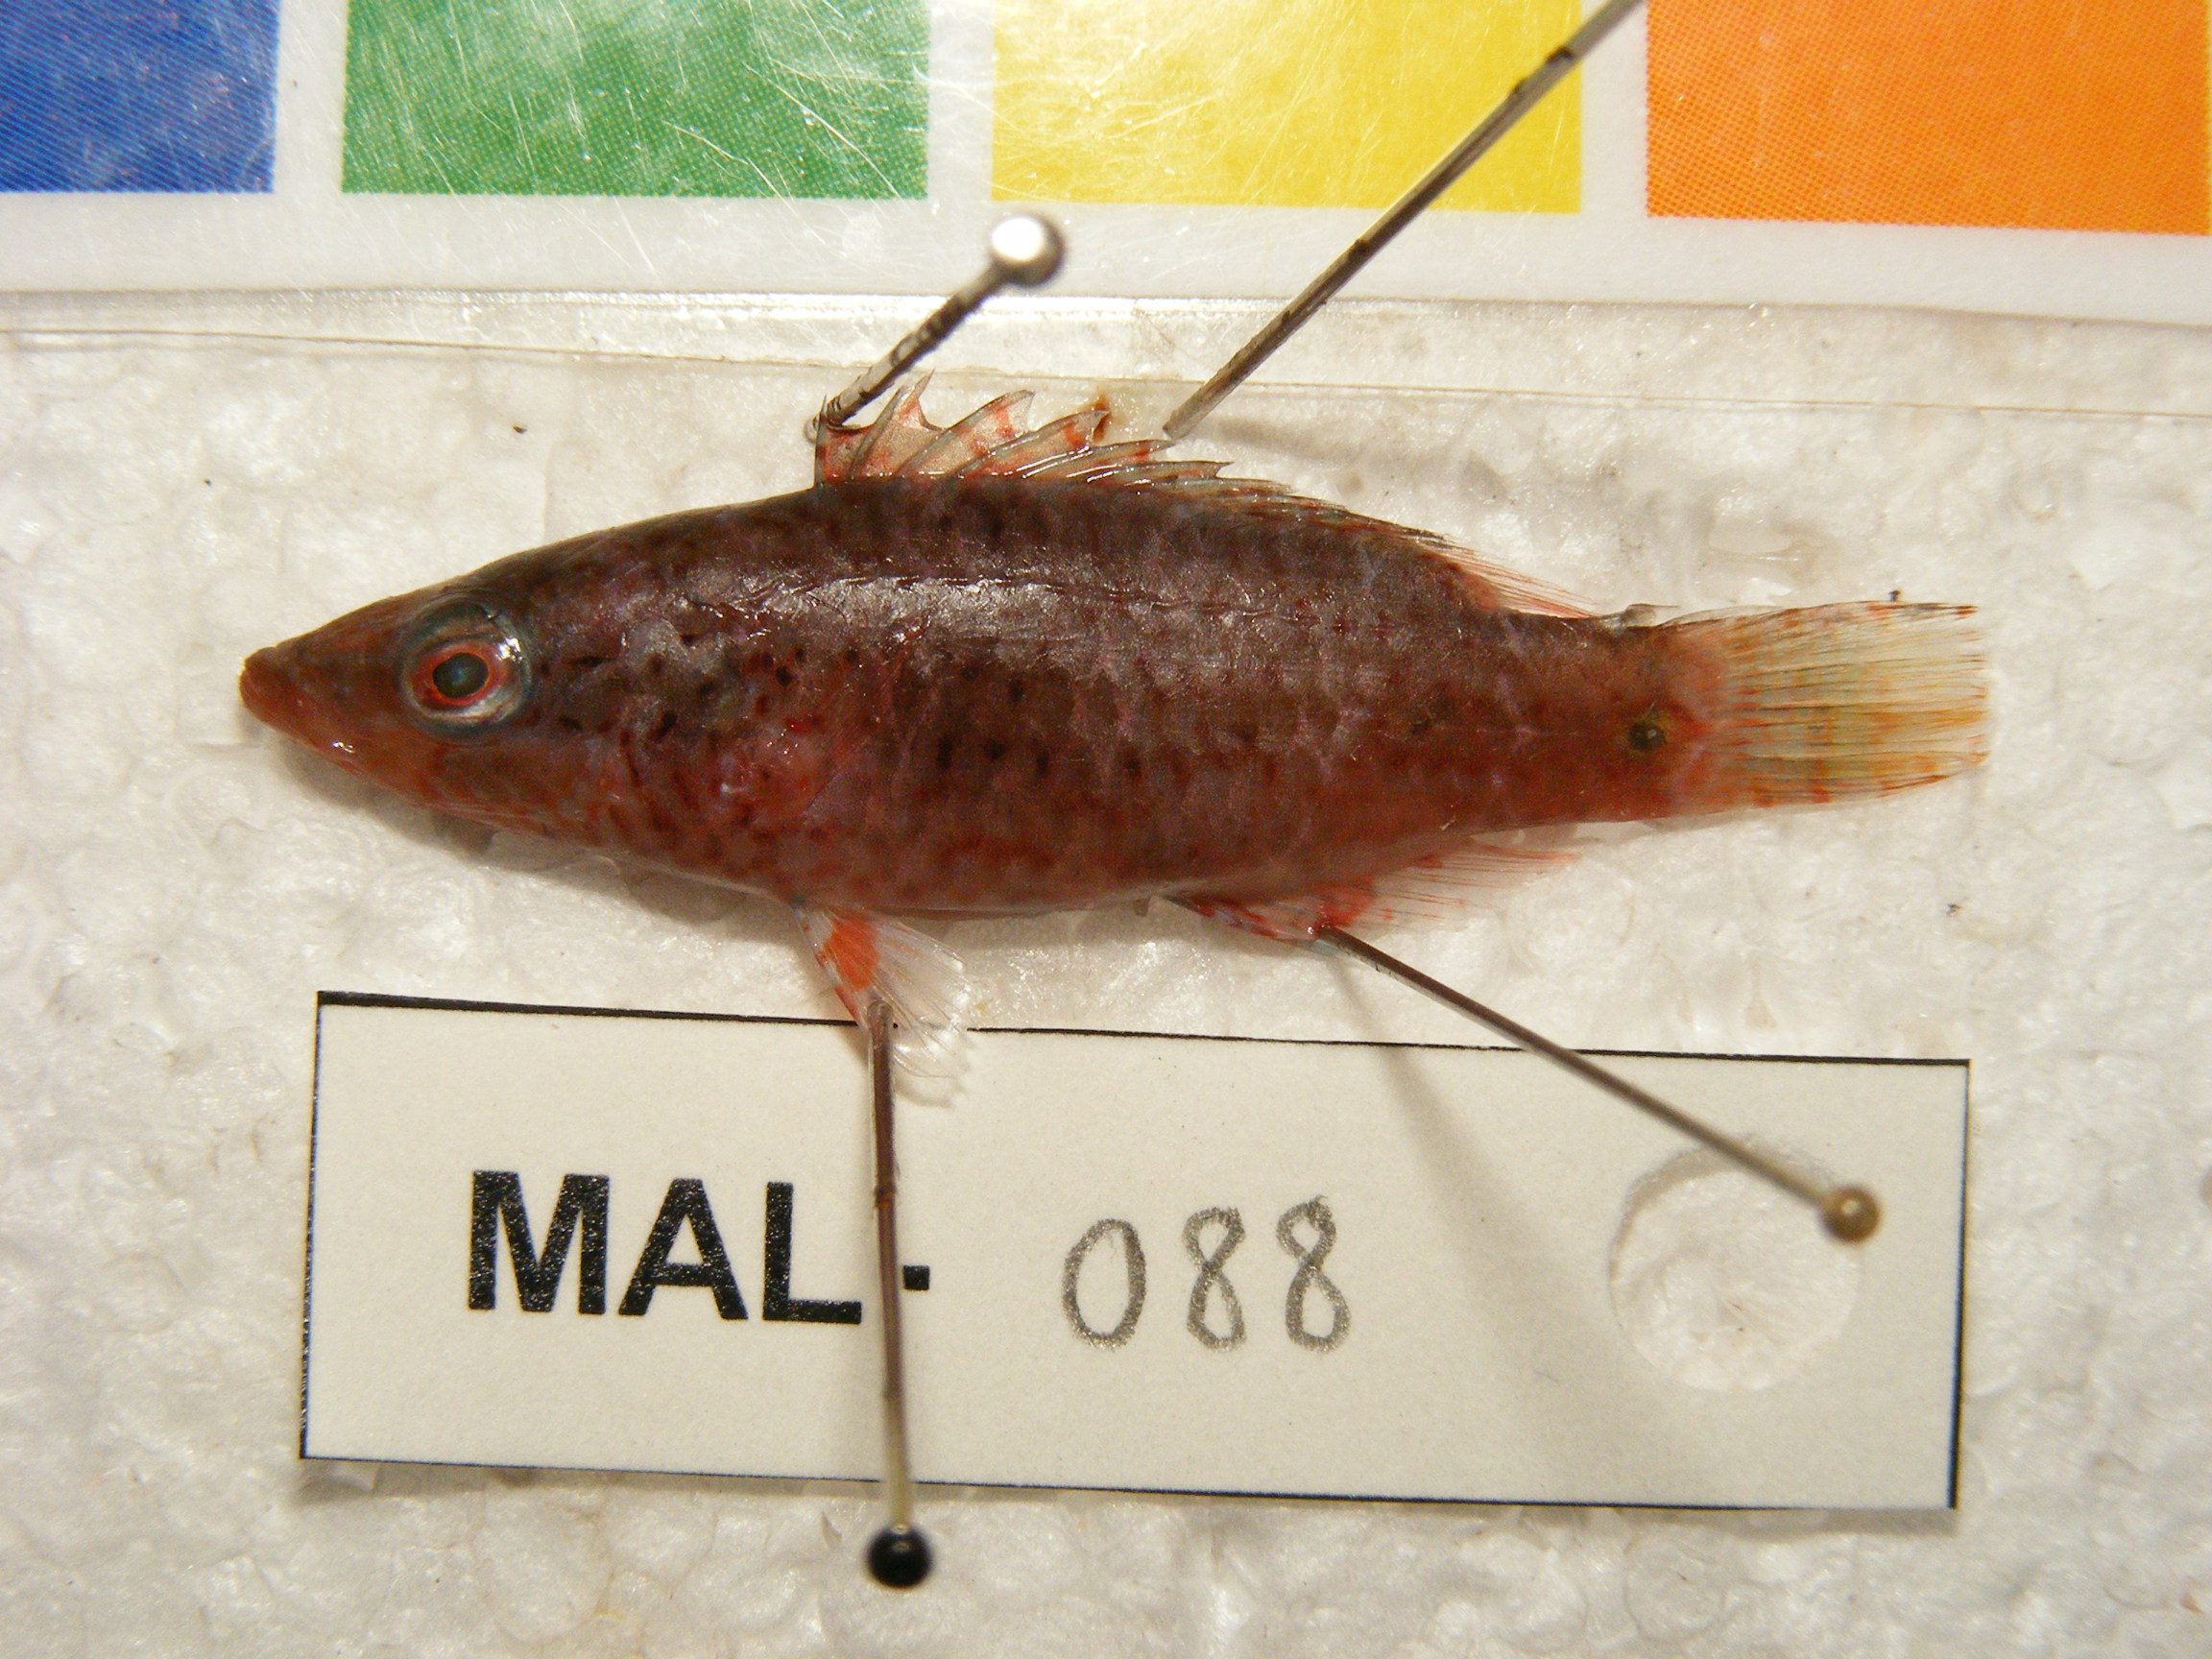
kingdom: Animalia
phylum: Chordata
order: Perciformes
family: Labridae
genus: Cheilinus
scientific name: Cheilinus
